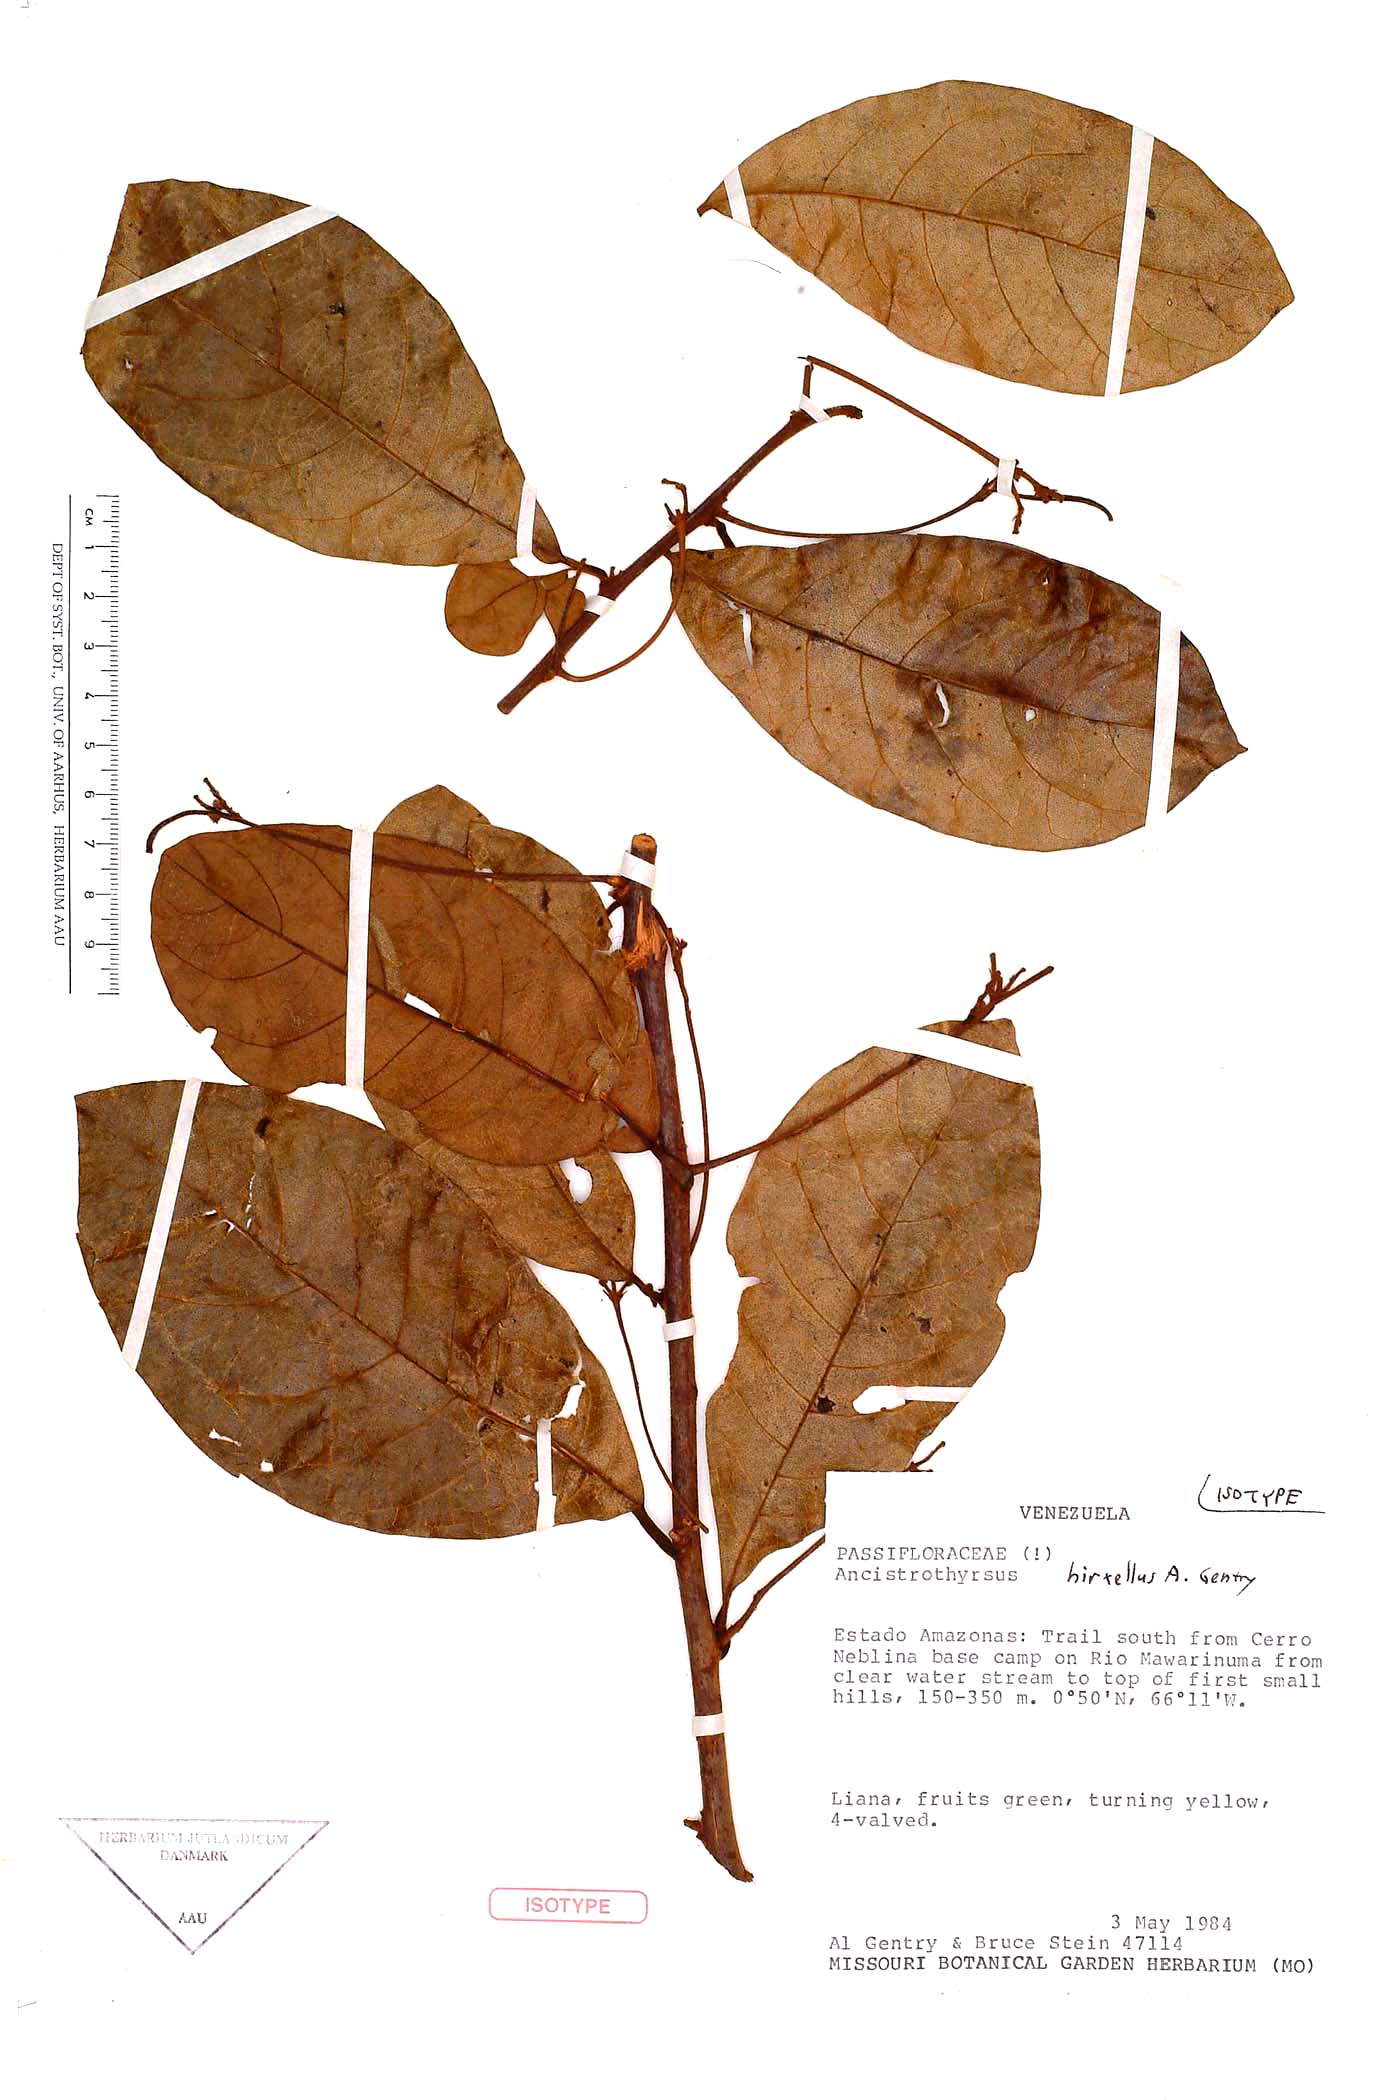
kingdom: Plantae
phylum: Tracheophyta
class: Magnoliopsida
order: Malpighiales
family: Passifloraceae
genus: Ancistrothyrsus
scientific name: Ancistrothyrsus hirtellus
